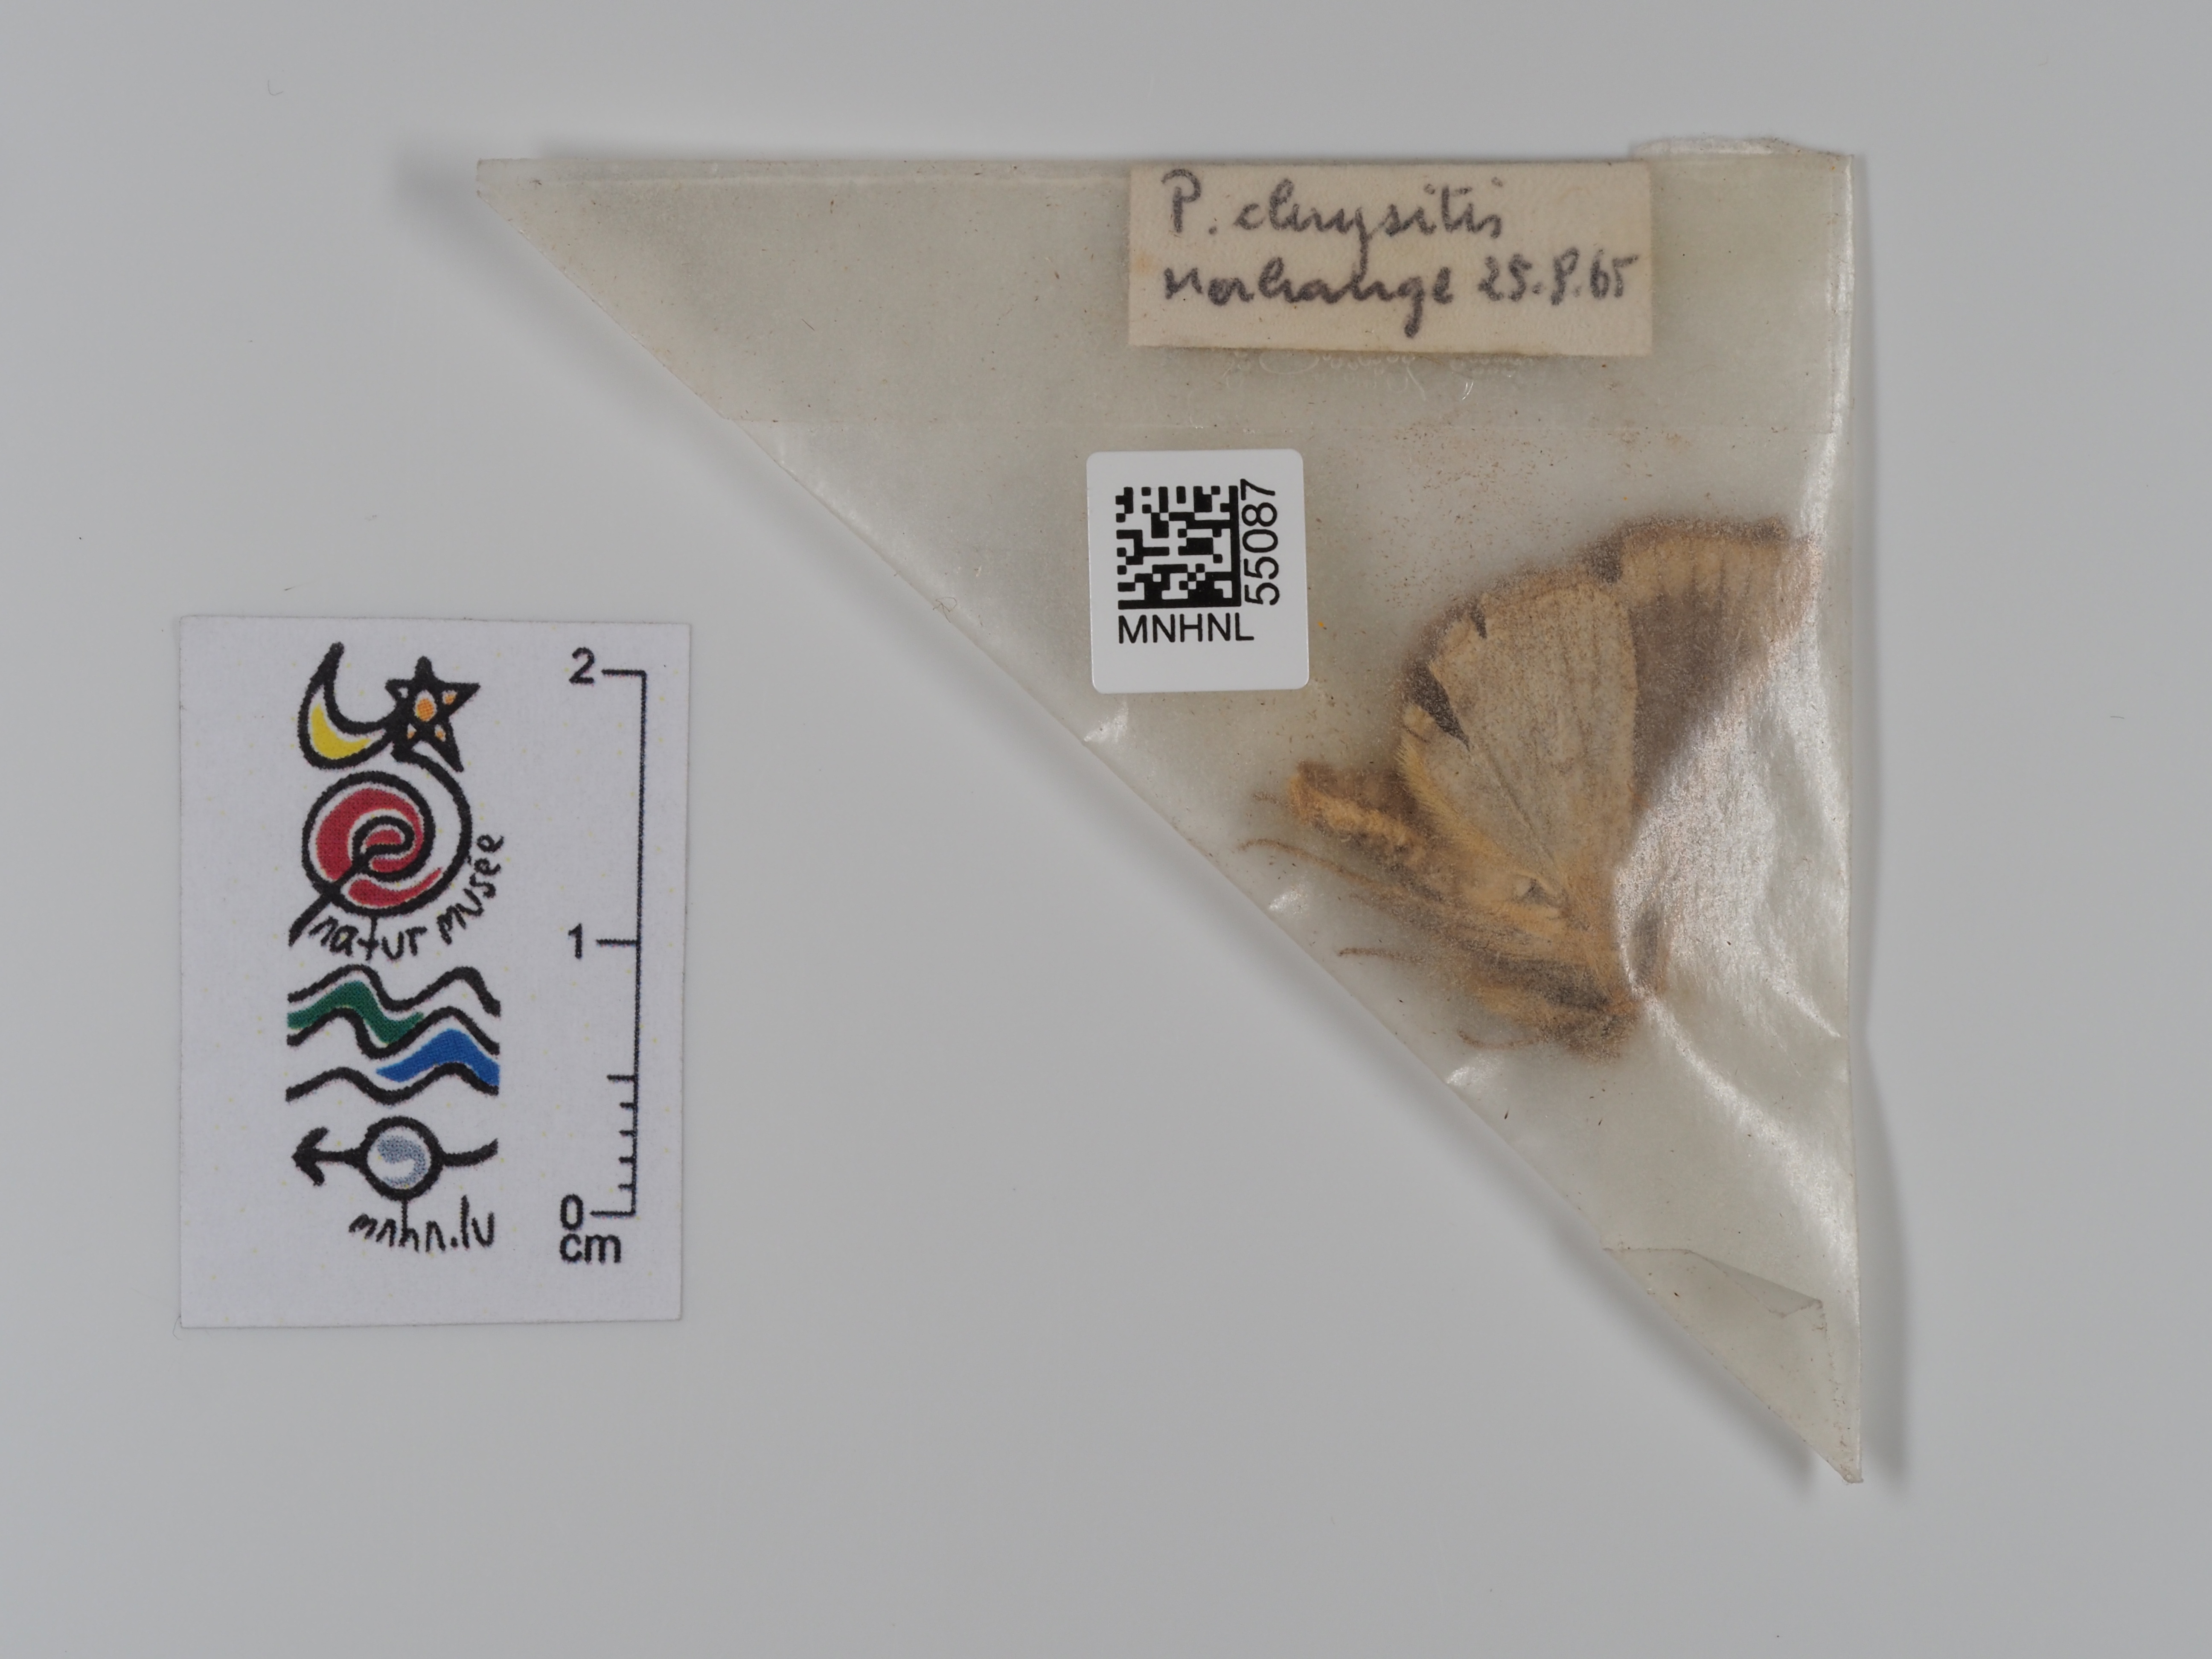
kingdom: Animalia
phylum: Arthropoda
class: Insecta
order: Lepidoptera
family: Noctuidae
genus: Diachrysia
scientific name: Diachrysia chrysitis
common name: Burnished brass
